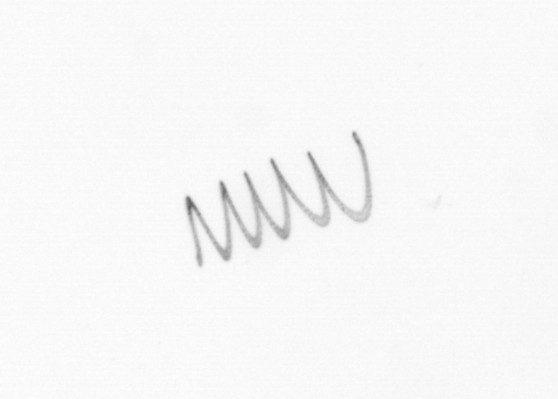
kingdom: Chromista
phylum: Ochrophyta
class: Bacillariophyceae
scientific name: Bacillariophyceae
